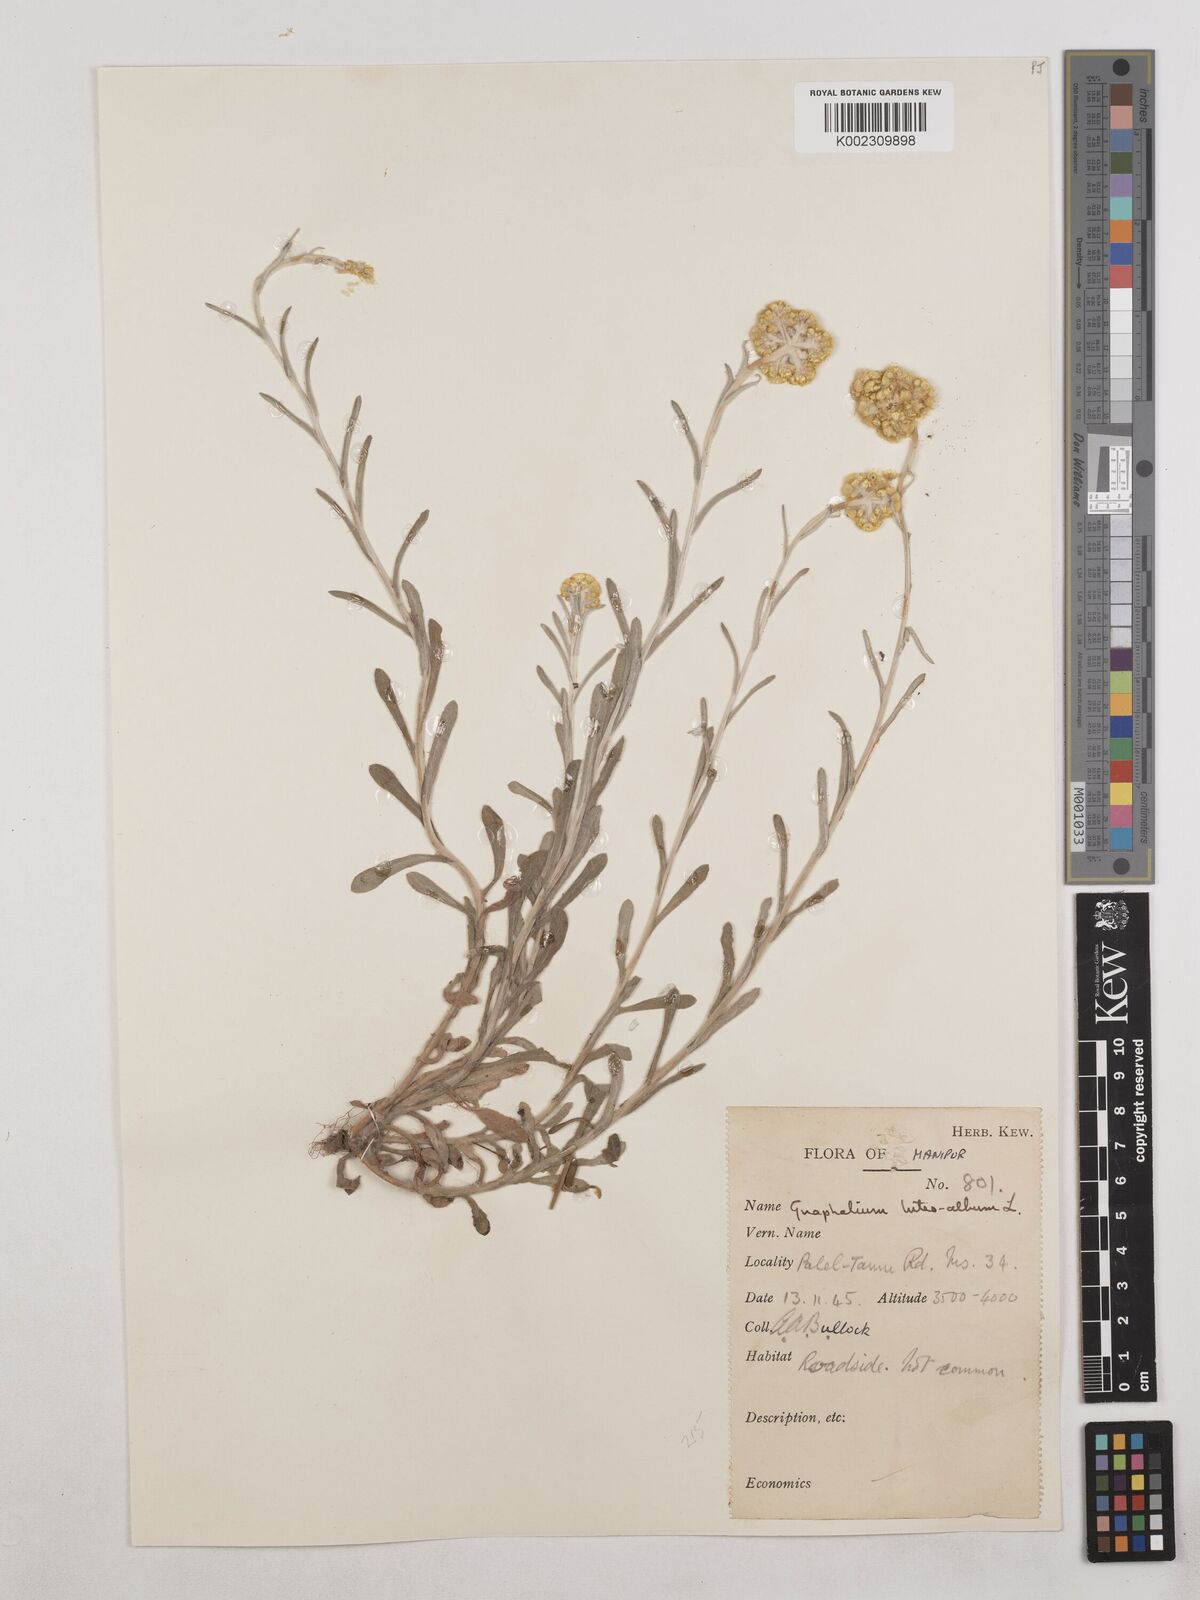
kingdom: Plantae
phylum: Tracheophyta
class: Magnoliopsida
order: Asterales
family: Asteraceae
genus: Pseudognaphalium
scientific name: Pseudognaphalium affine
